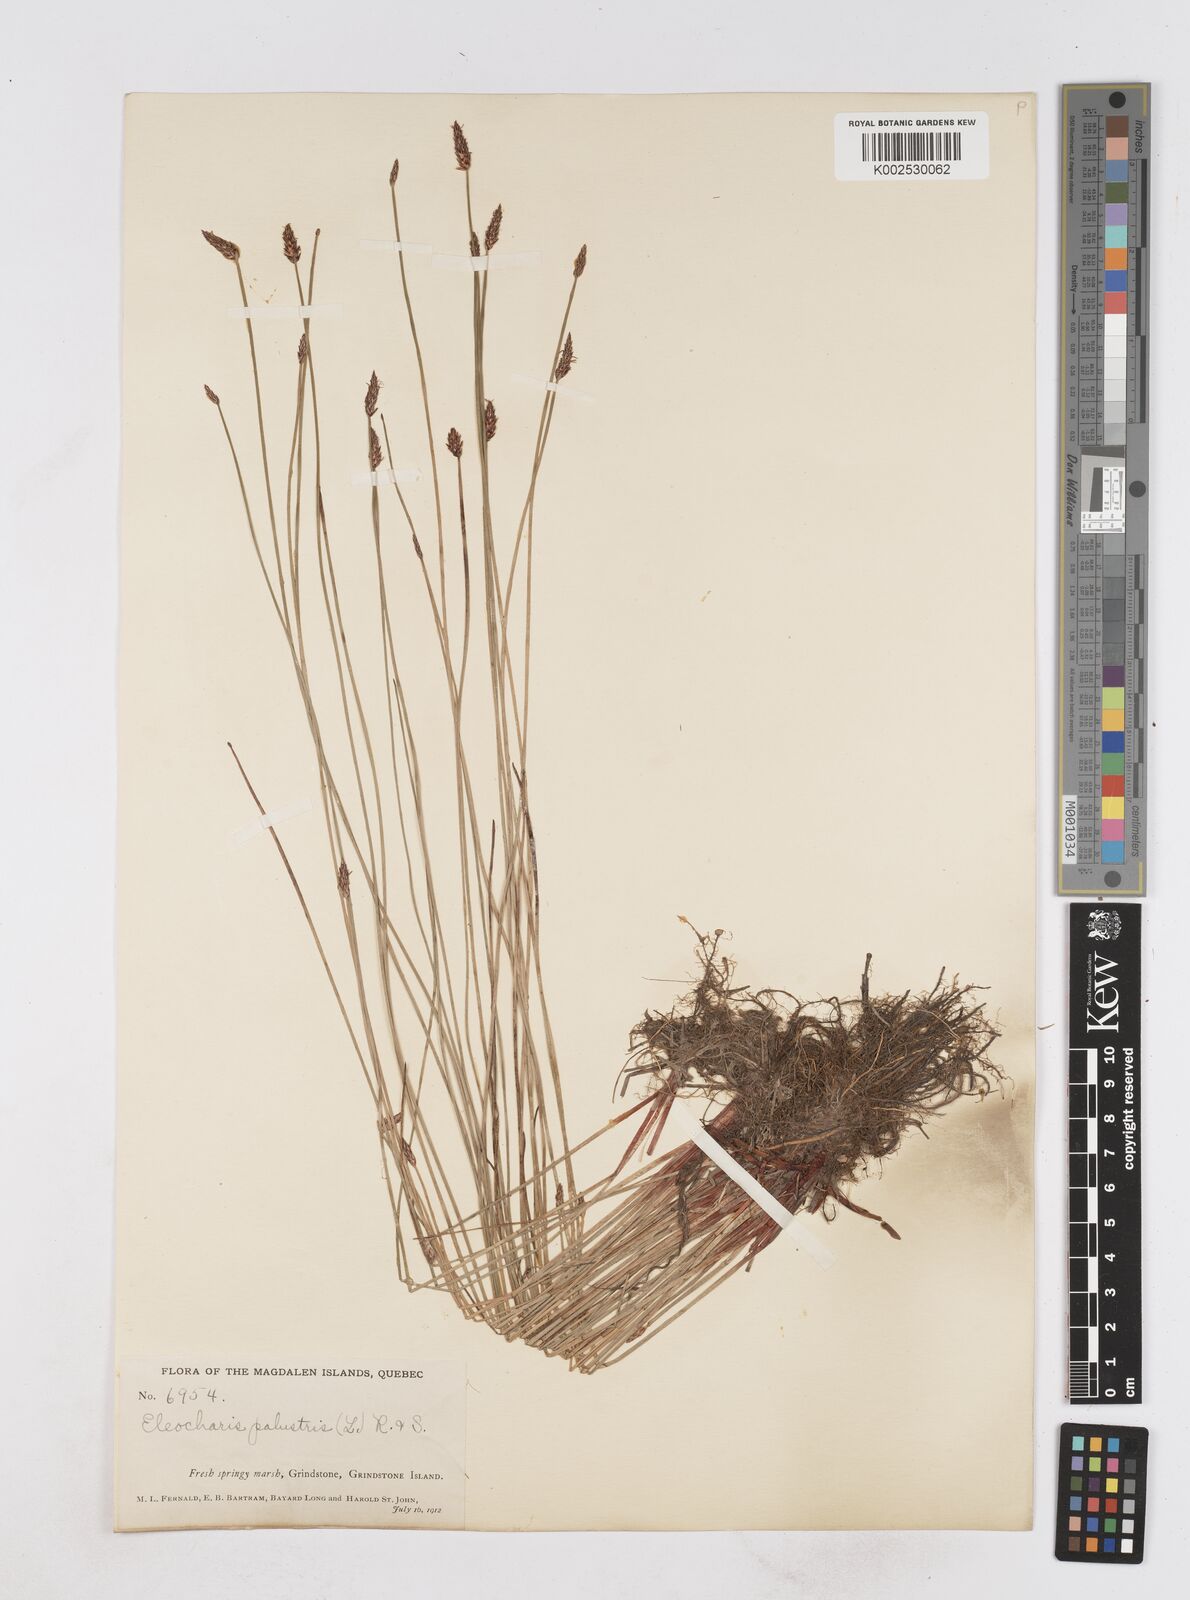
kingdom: Plantae
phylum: Tracheophyta
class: Liliopsida
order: Poales
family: Cyperaceae
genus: Eleocharis
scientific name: Eleocharis palustris
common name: Common spike-rush
